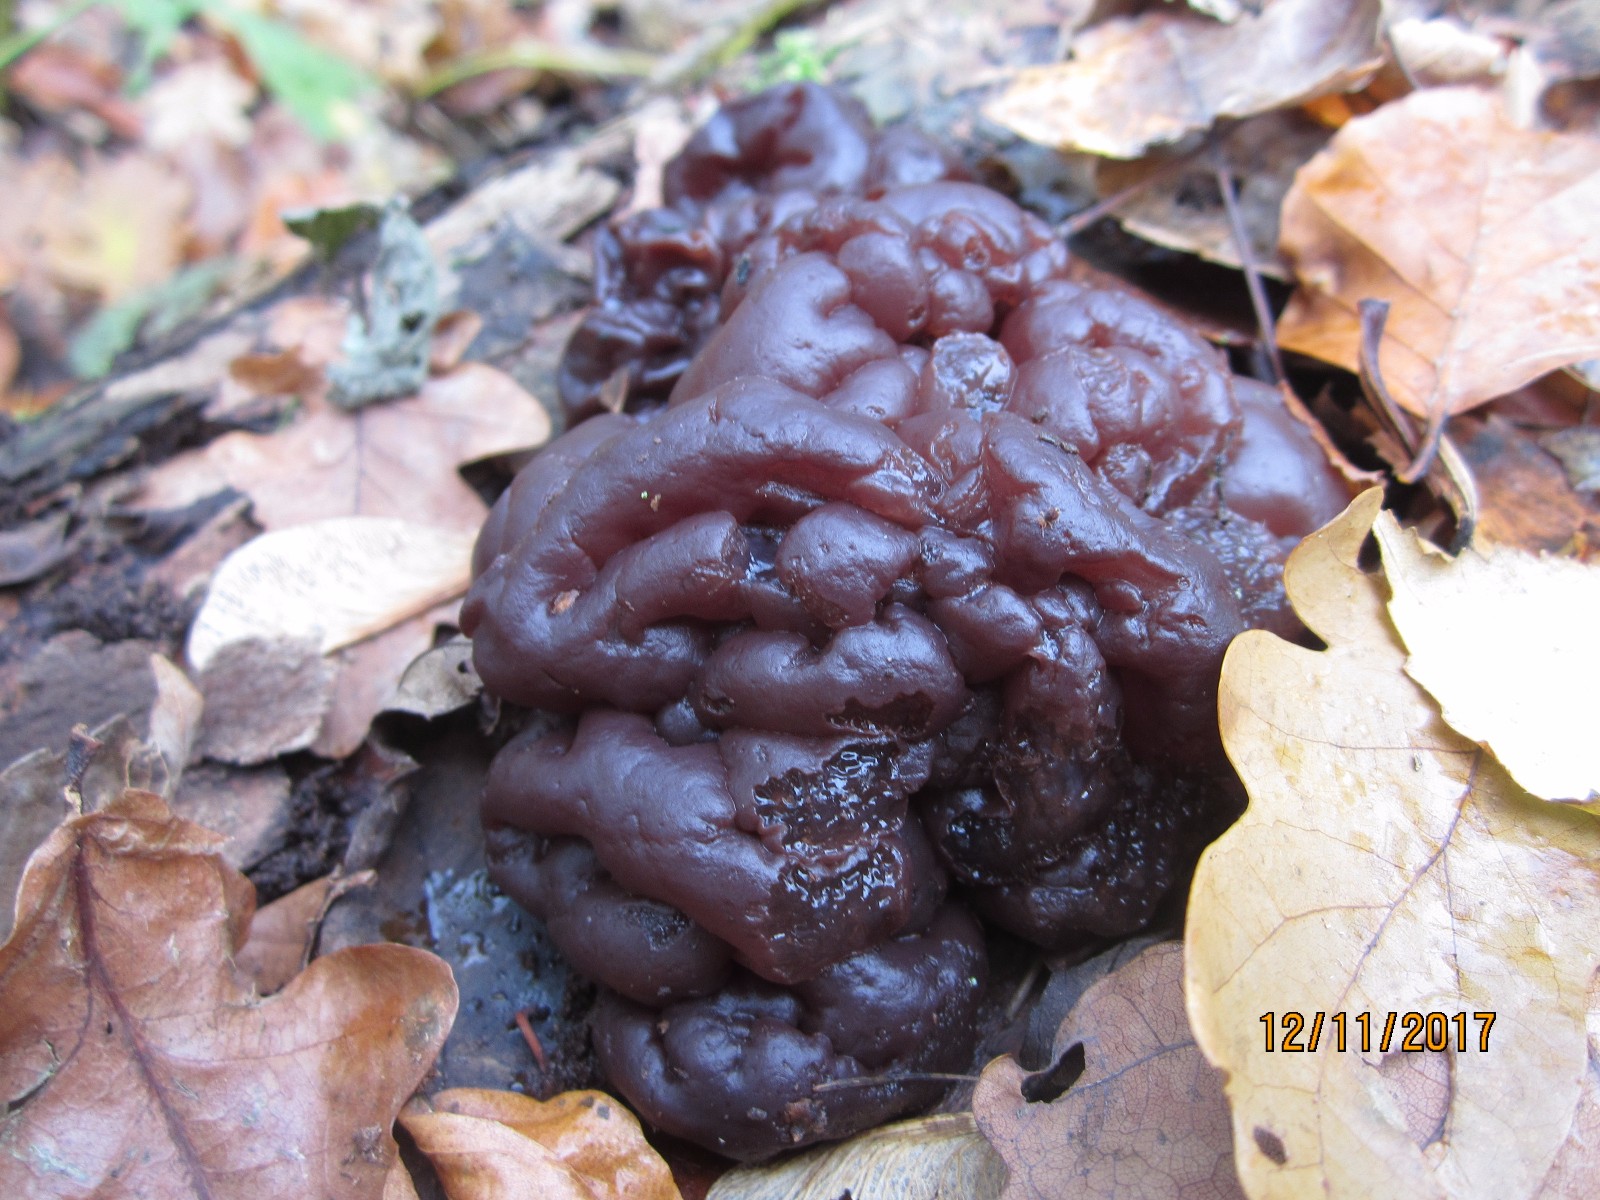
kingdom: Fungi
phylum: Ascomycota
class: Leotiomycetes
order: Helotiales
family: Gelatinodiscaceae
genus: Ascotremella
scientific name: Ascotremella faginea
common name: hjerne-bævreskive
